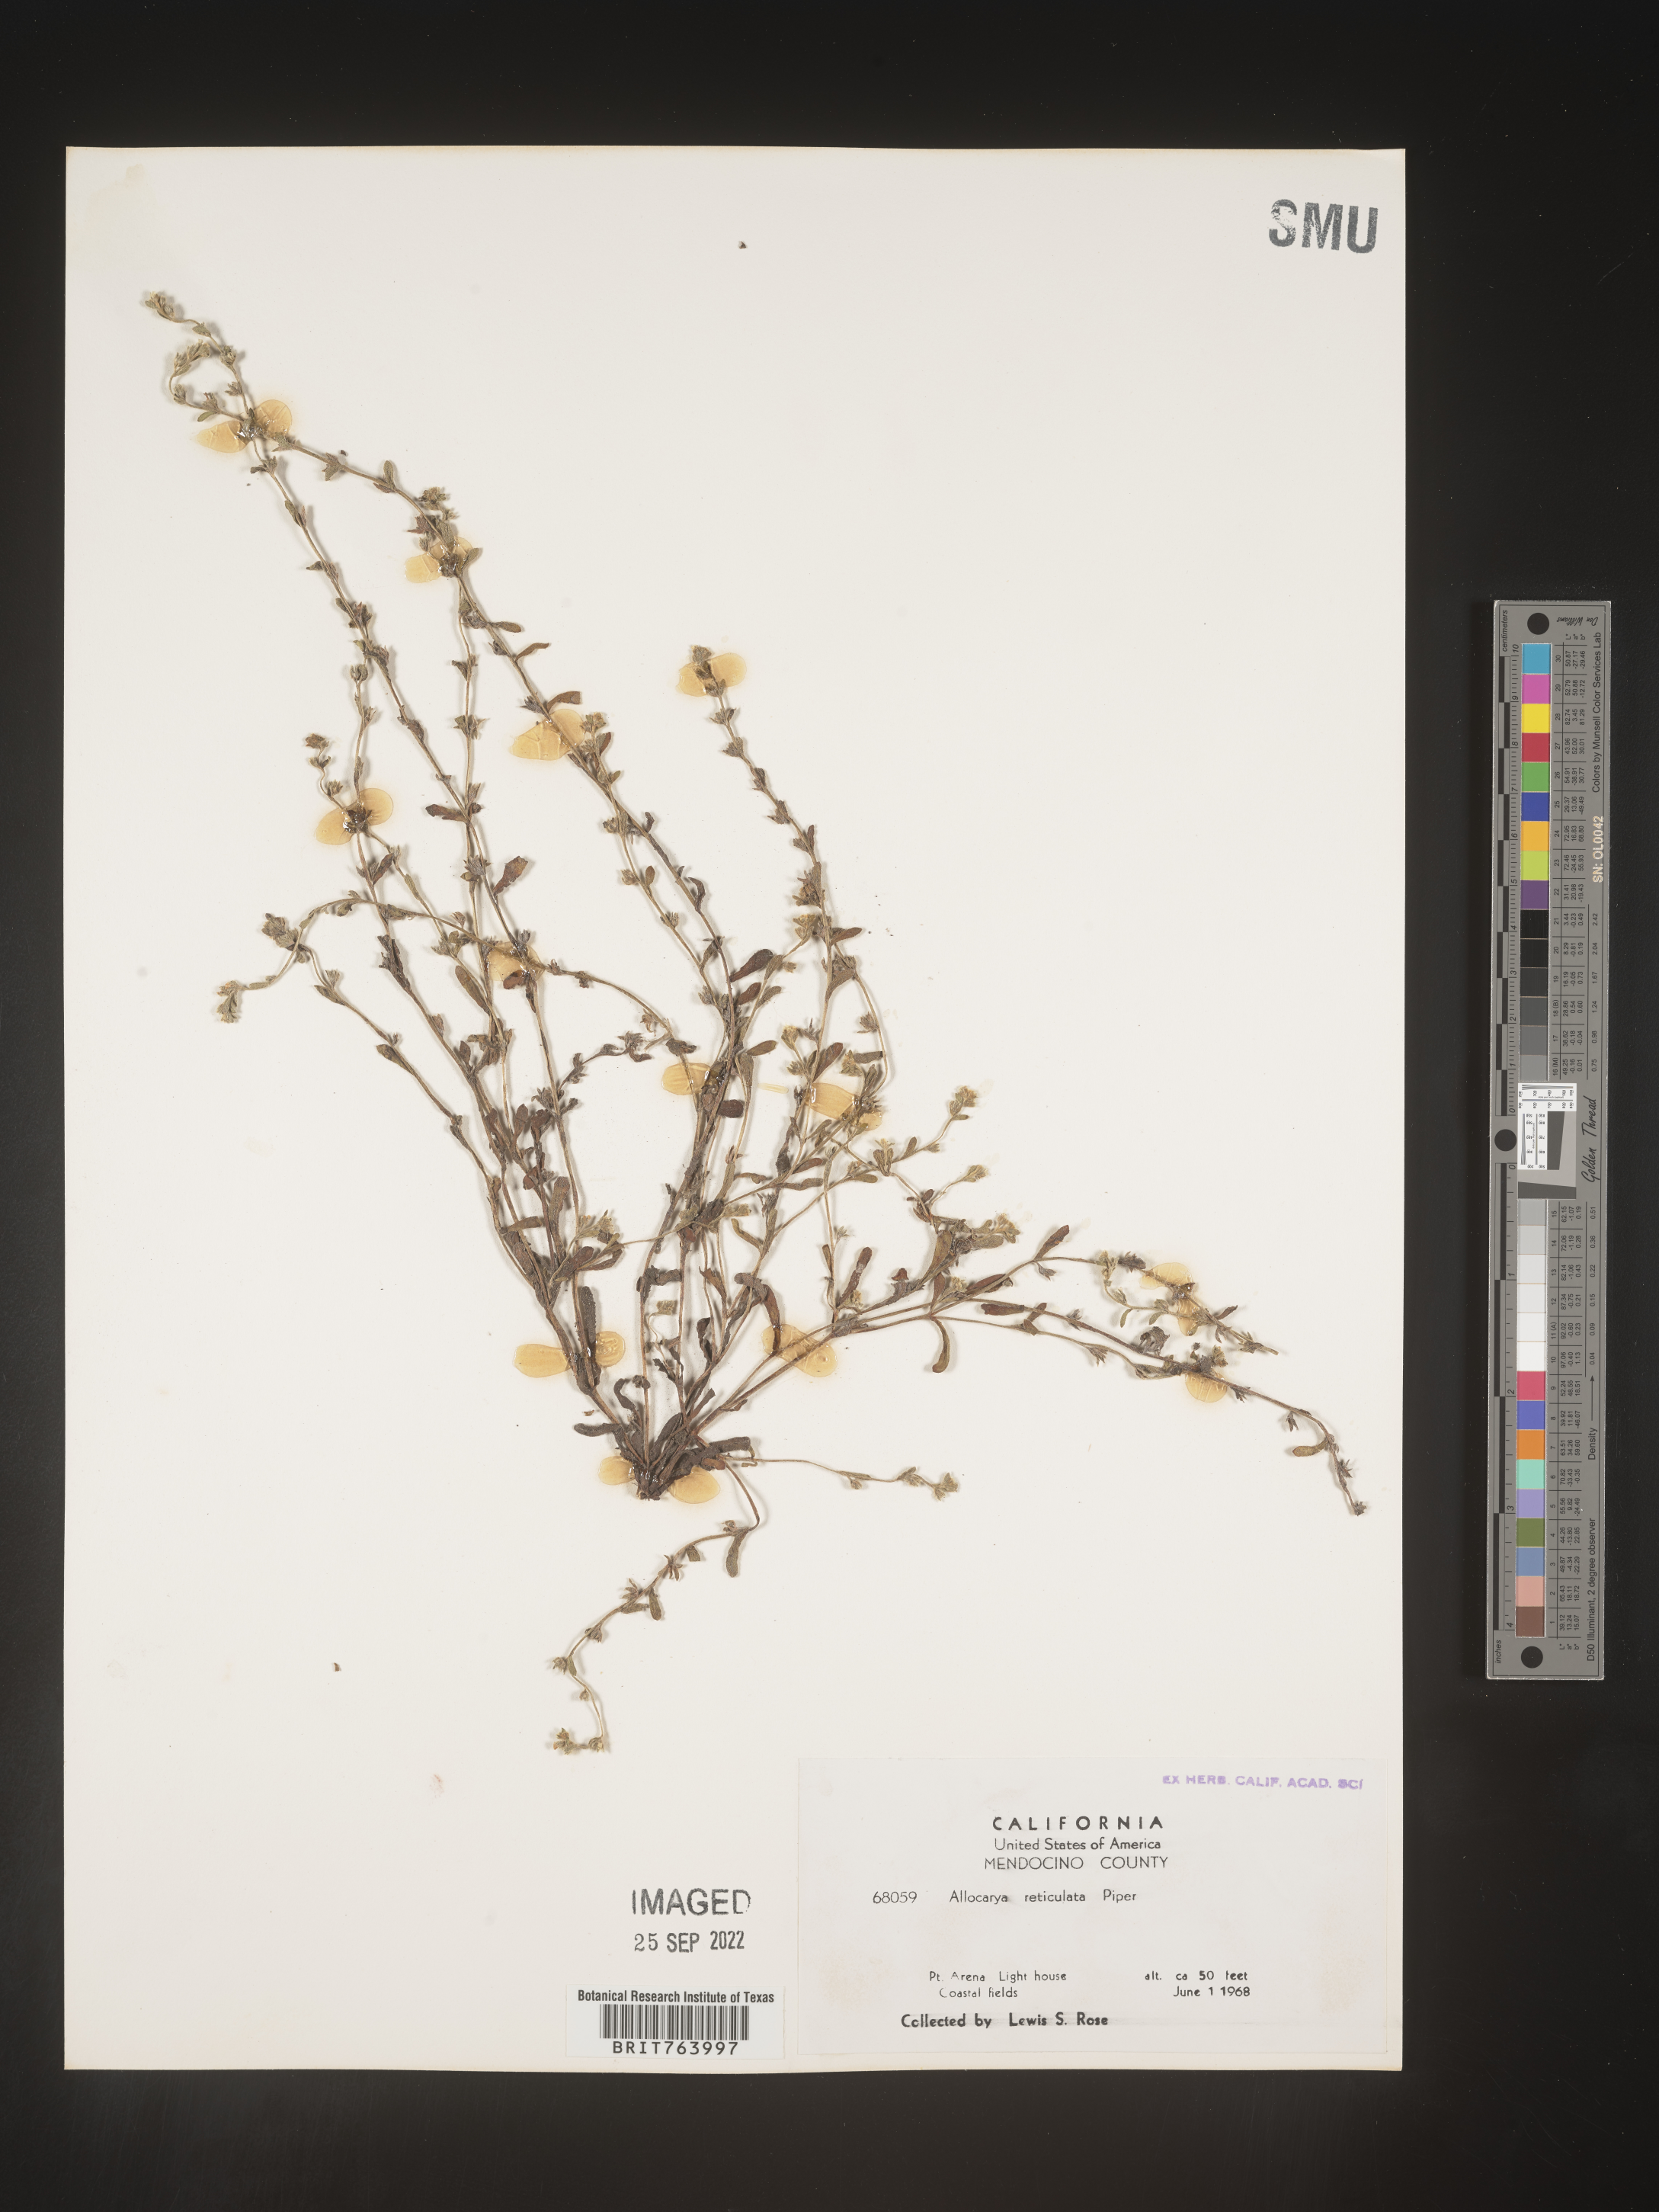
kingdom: Plantae
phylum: Tracheophyta
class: Magnoliopsida
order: Boraginales
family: Boraginaceae
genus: Plagiobothrys
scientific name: Plagiobothrys
